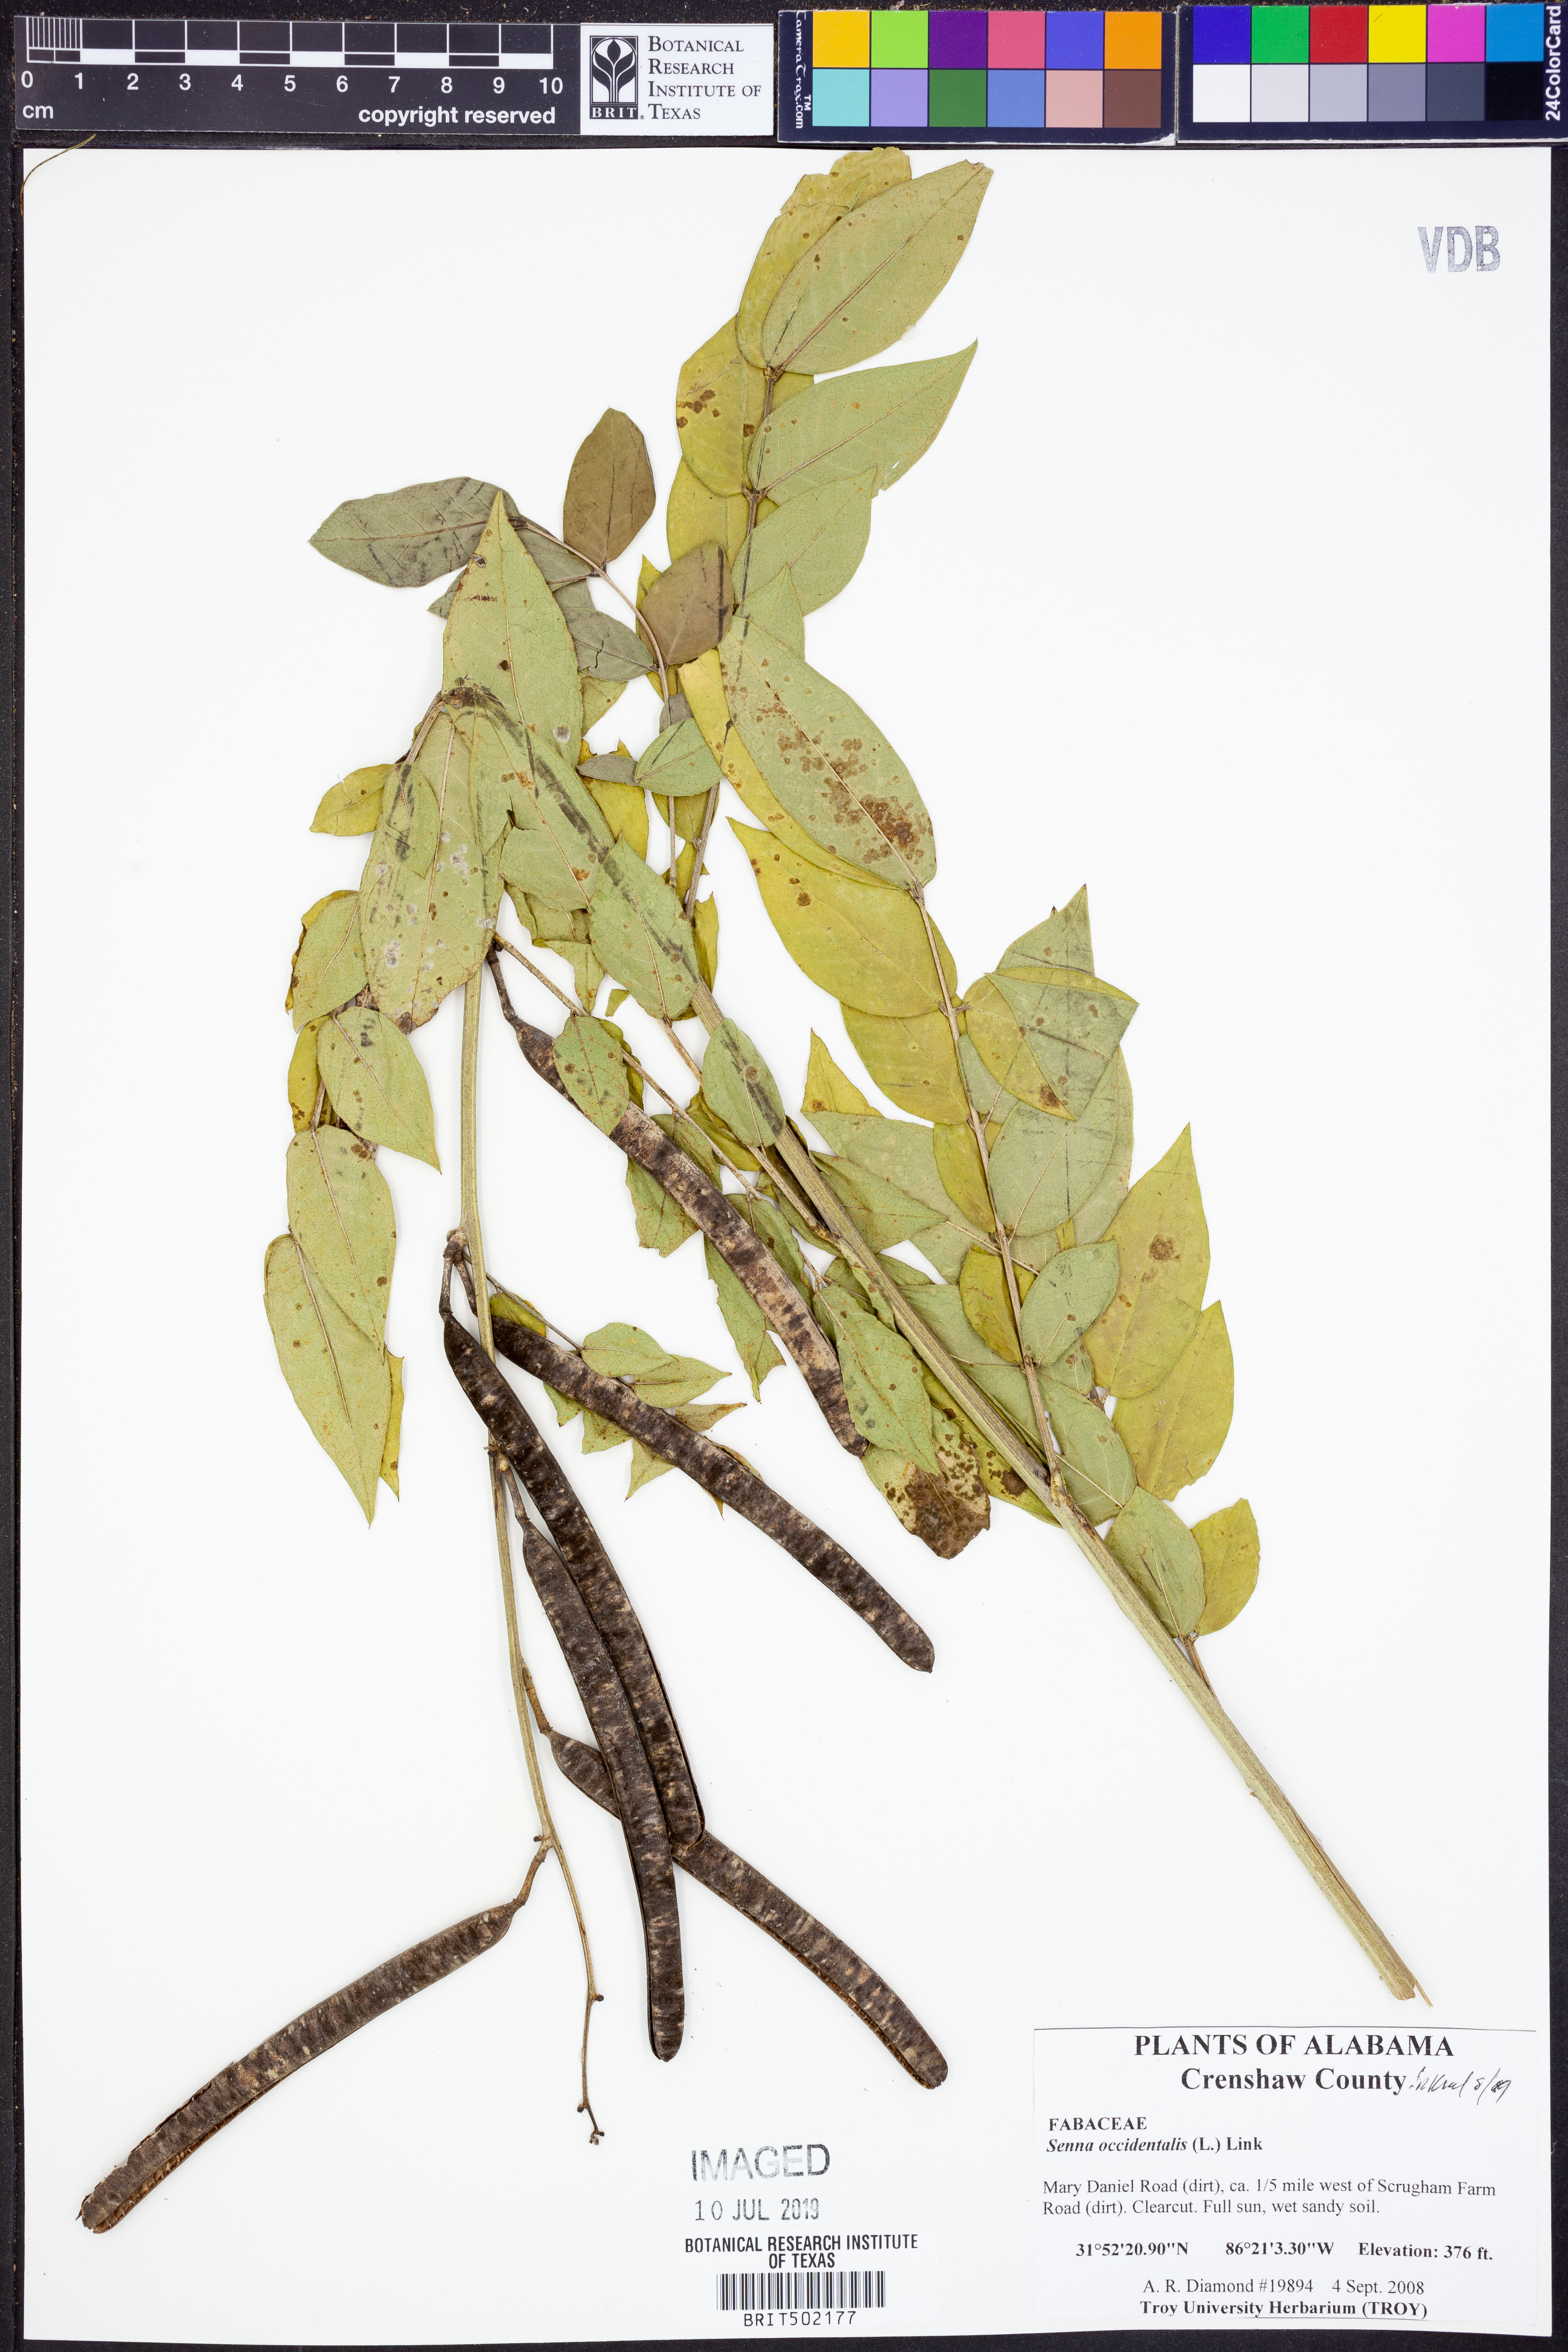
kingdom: Plantae
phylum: Tracheophyta
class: Magnoliopsida
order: Fabales
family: Fabaceae
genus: Senna
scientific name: Senna occidentalis
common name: Septicweed
